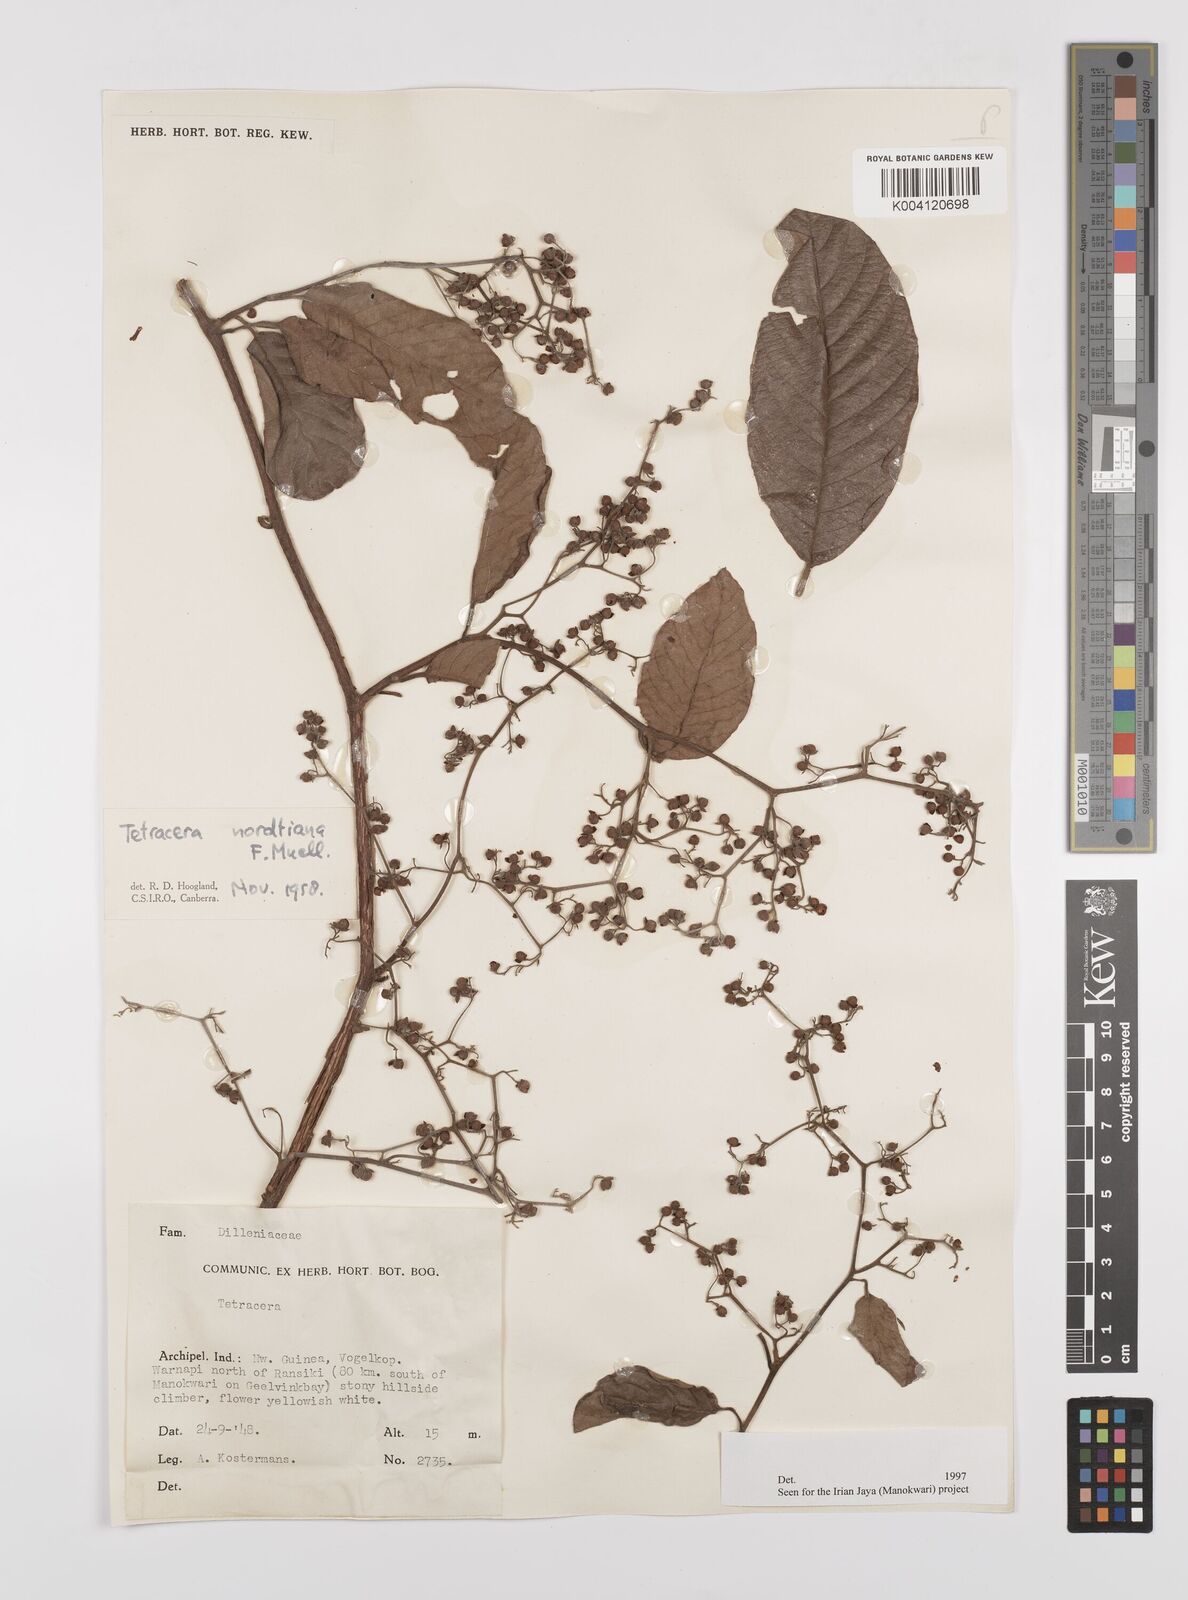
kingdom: Plantae
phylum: Tracheophyta
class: Magnoliopsida
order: Dilleniales
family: Dilleniaceae
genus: Tetracera
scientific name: Tetracera nordtiana
